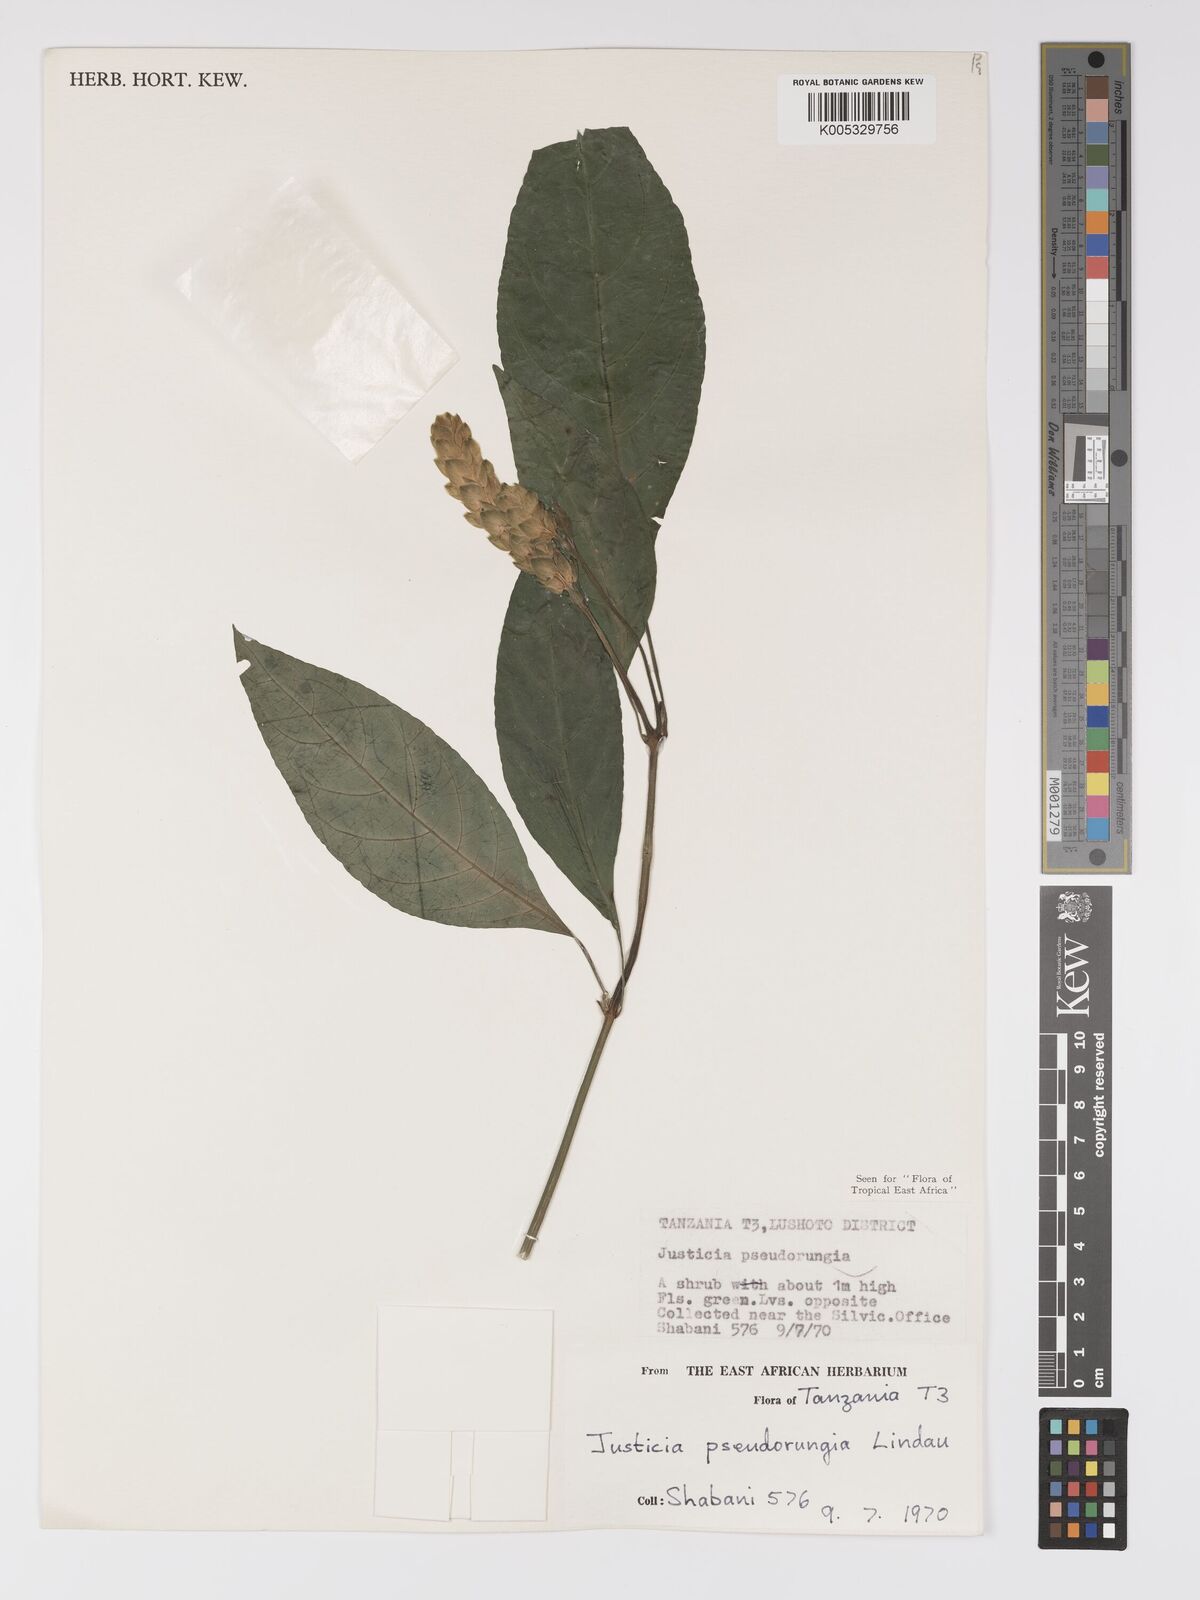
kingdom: Plantae
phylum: Tracheophyta
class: Magnoliopsida
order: Lamiales
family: Acanthaceae
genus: Justicia
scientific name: Justicia pseudorungia
